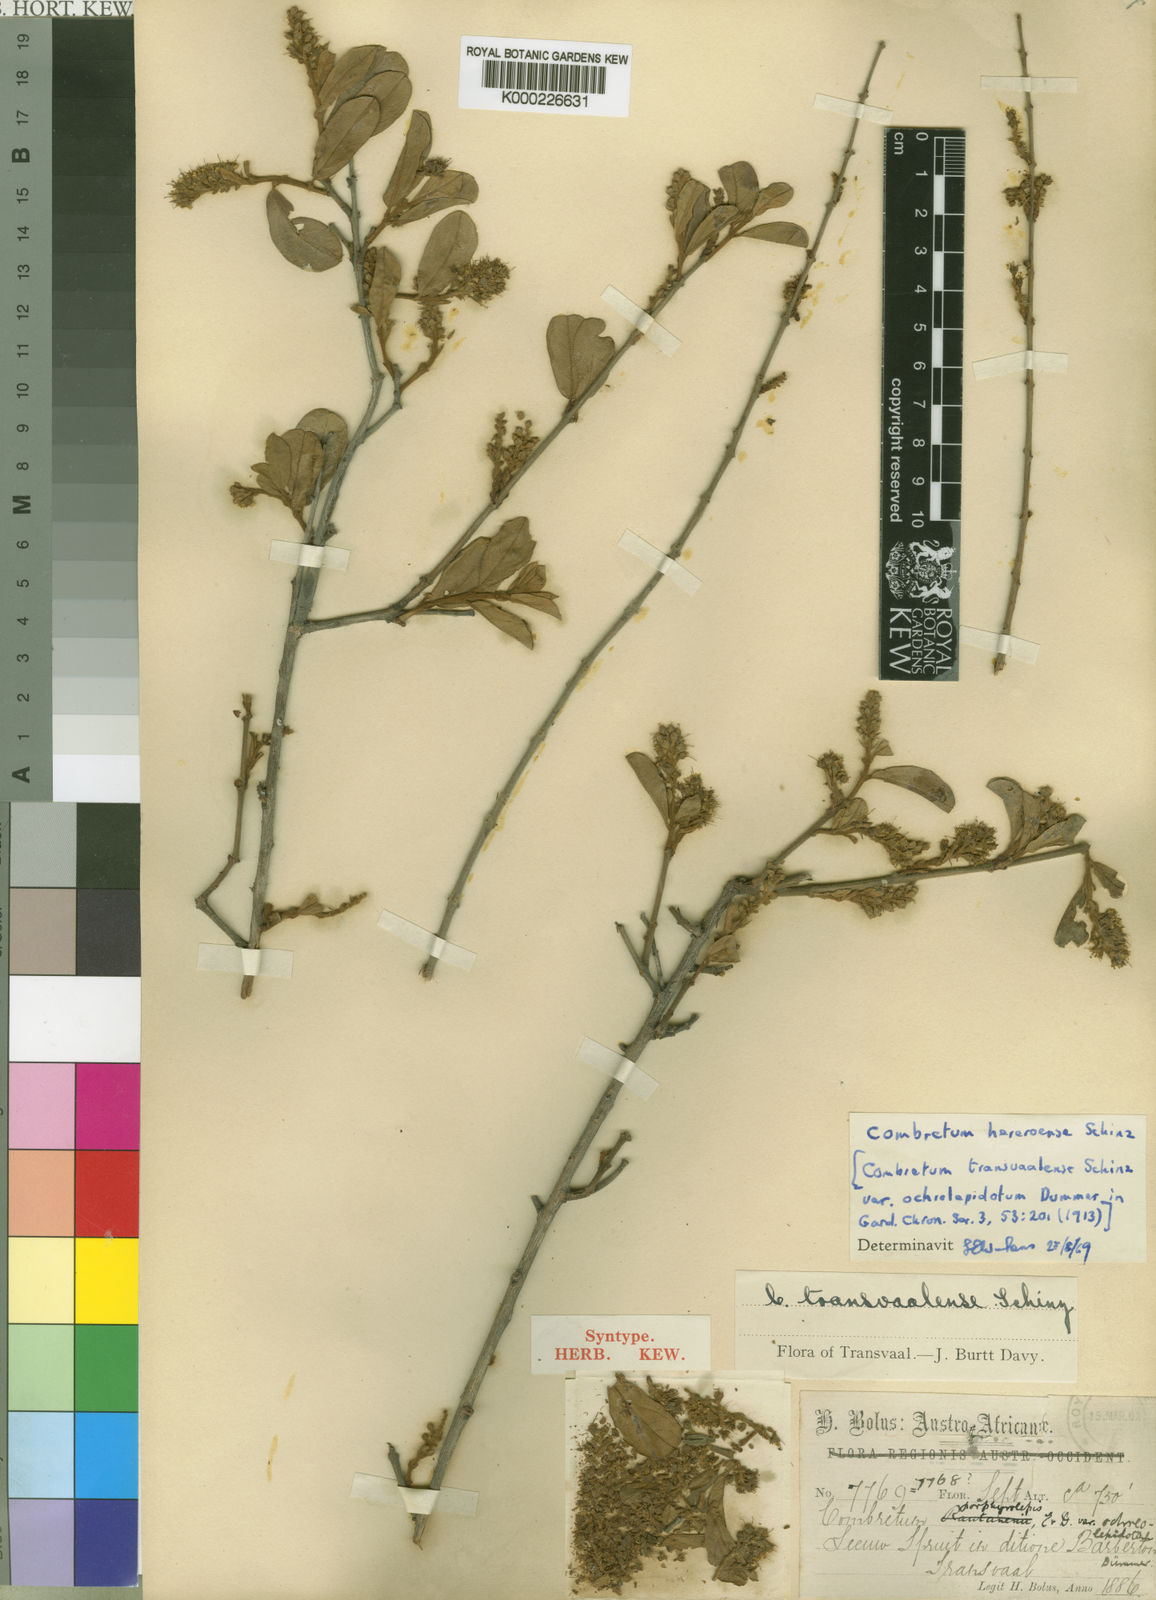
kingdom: Plantae
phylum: Tracheophyta
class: Magnoliopsida
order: Myrtales
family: Combretaceae
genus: Combretum
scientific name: Combretum hereroense
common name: Russet bushwillow
